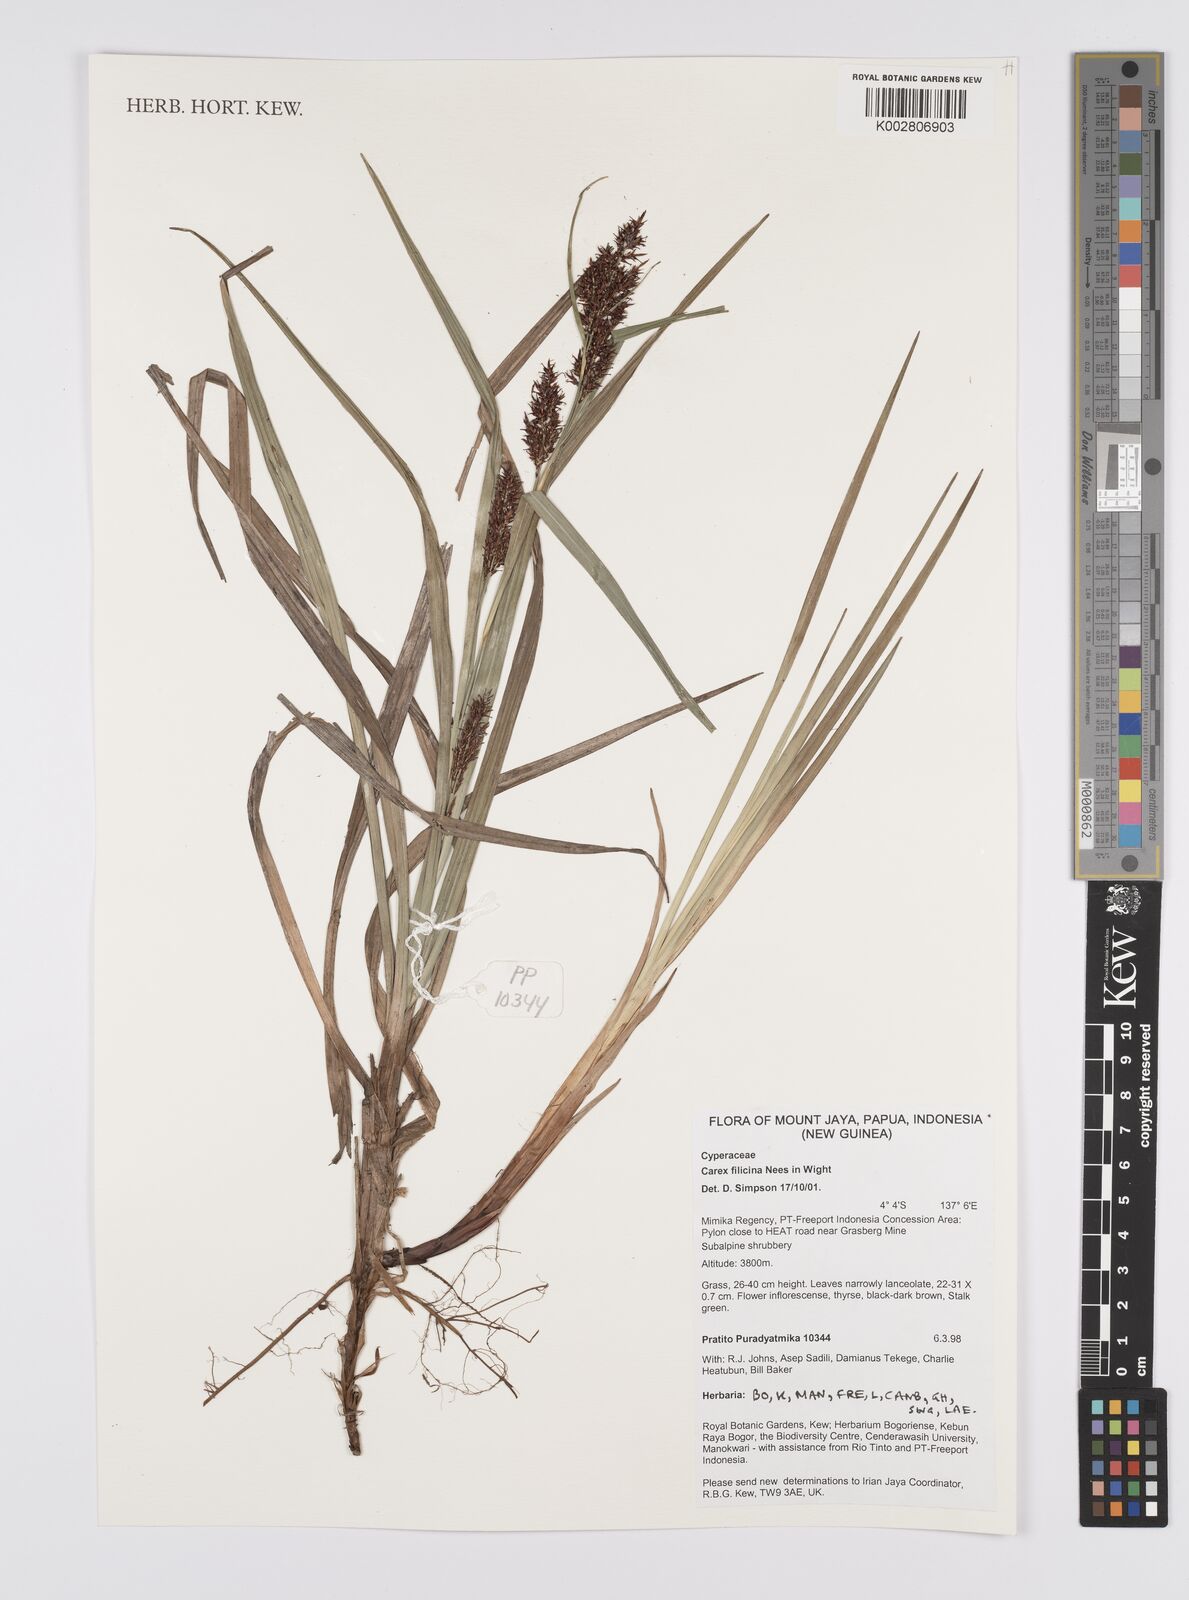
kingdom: Plantae
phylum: Tracheophyta
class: Liliopsida
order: Poales
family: Cyperaceae
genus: Carex
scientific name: Carex sarawaketensis
